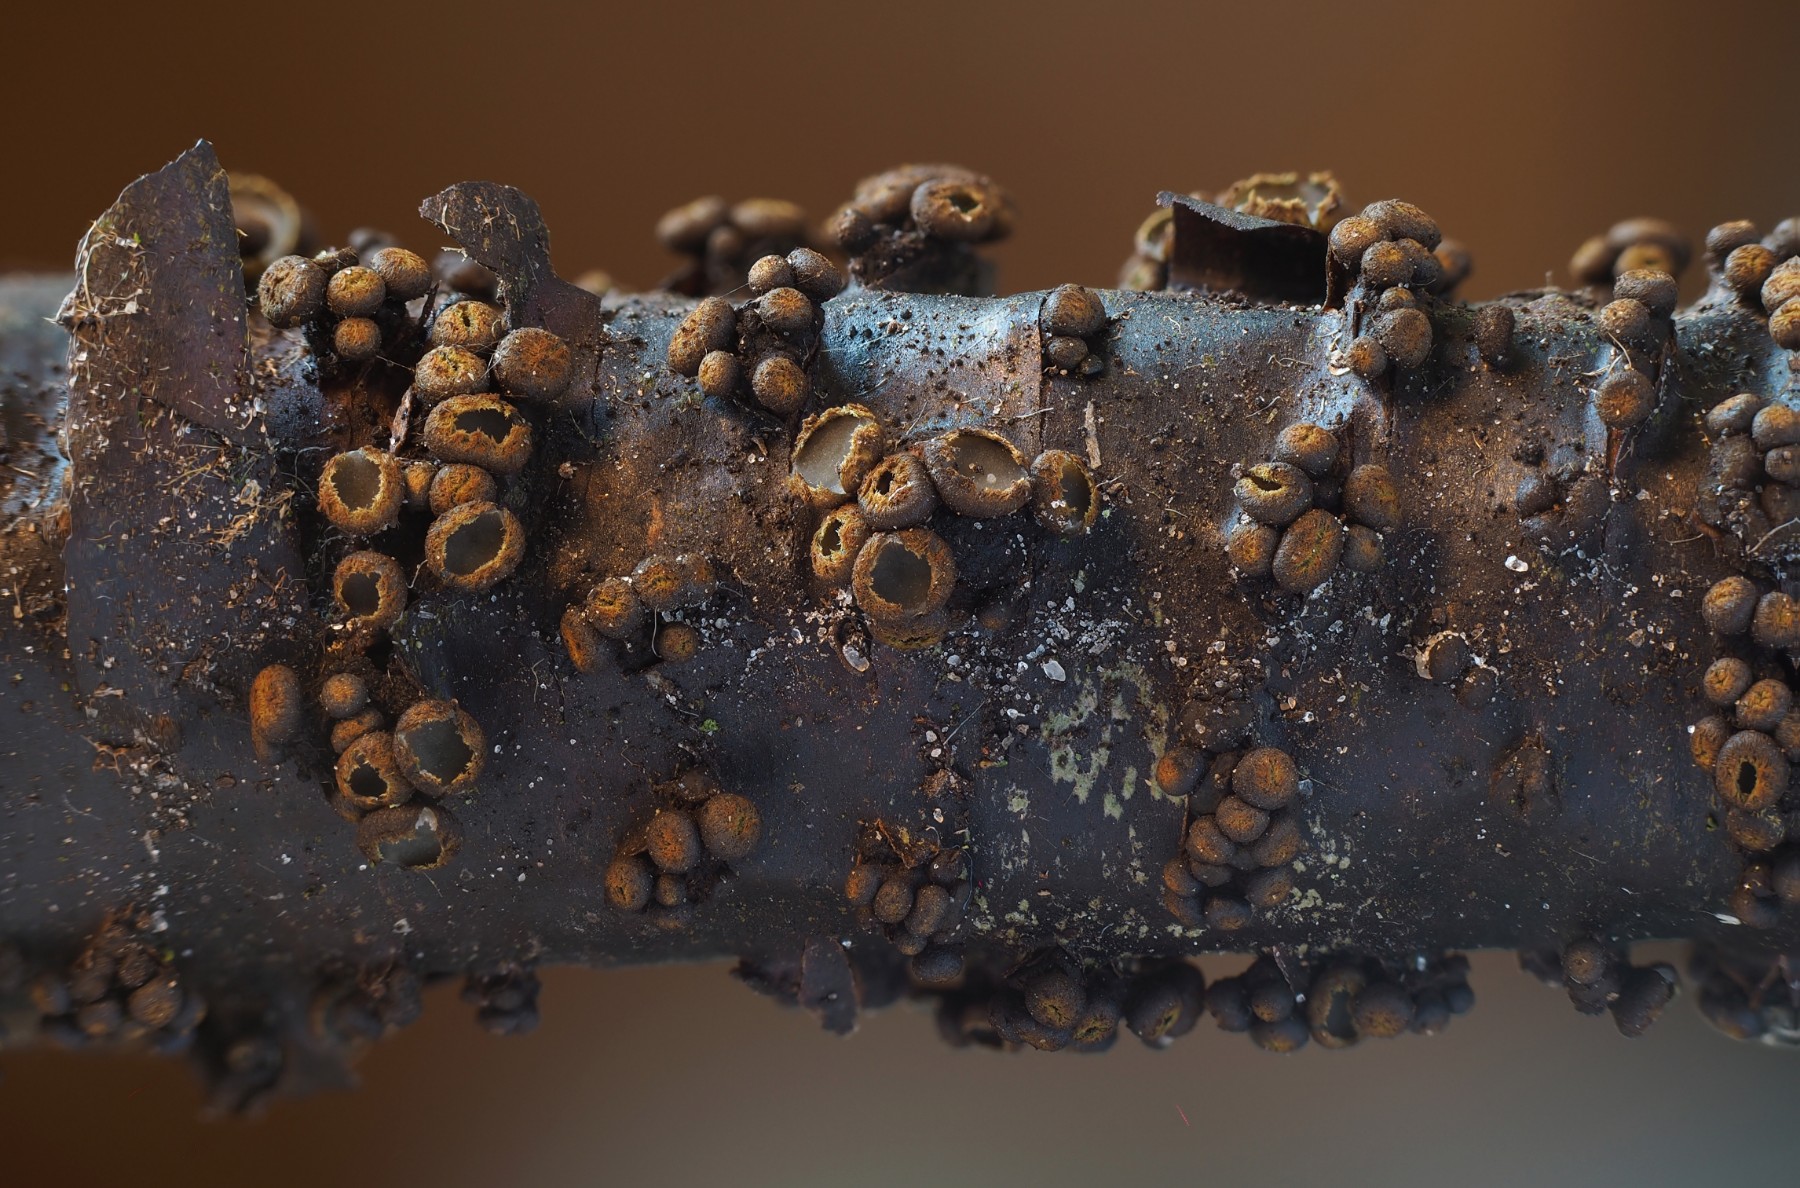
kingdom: Fungi
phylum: Ascomycota
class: Leotiomycetes
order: Helotiales
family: Godroniaceae
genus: Godronia
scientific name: Godronia uberiformis
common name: solbær-urneskive
